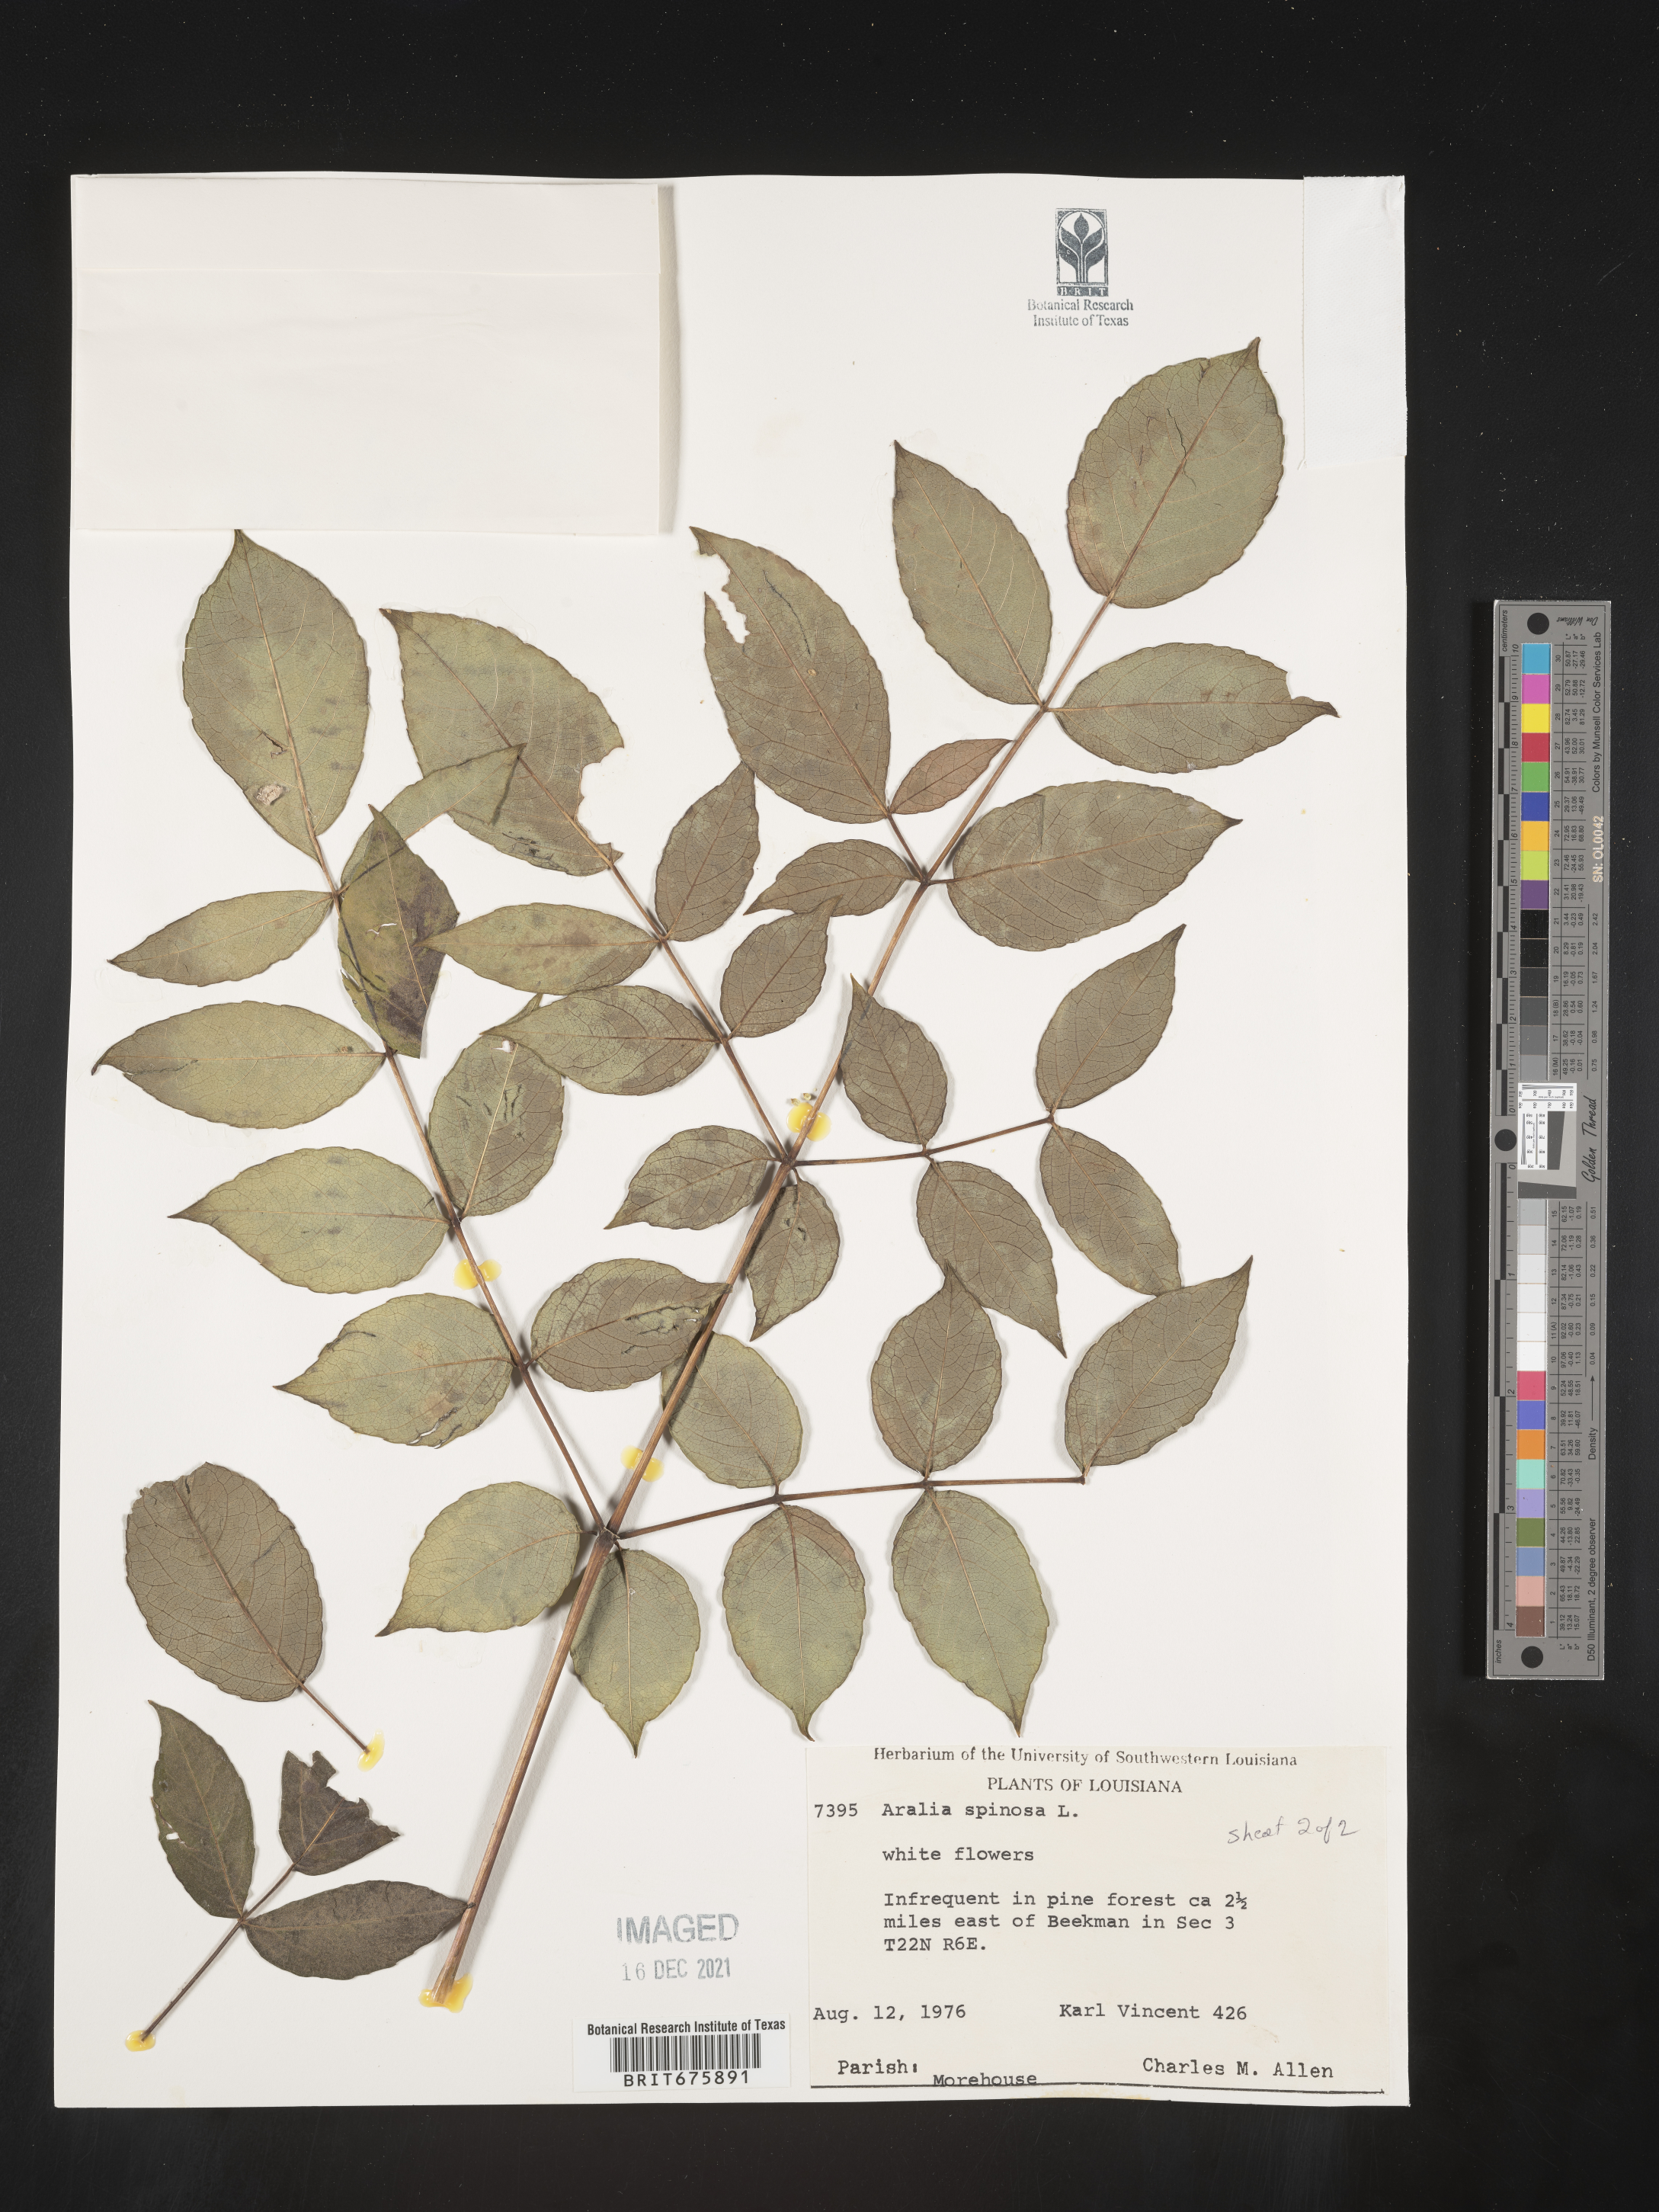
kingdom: Plantae
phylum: Tracheophyta
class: Magnoliopsida
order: Apiales
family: Araliaceae
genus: Aralia
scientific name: Aralia spinosa
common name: Hercules'-club
